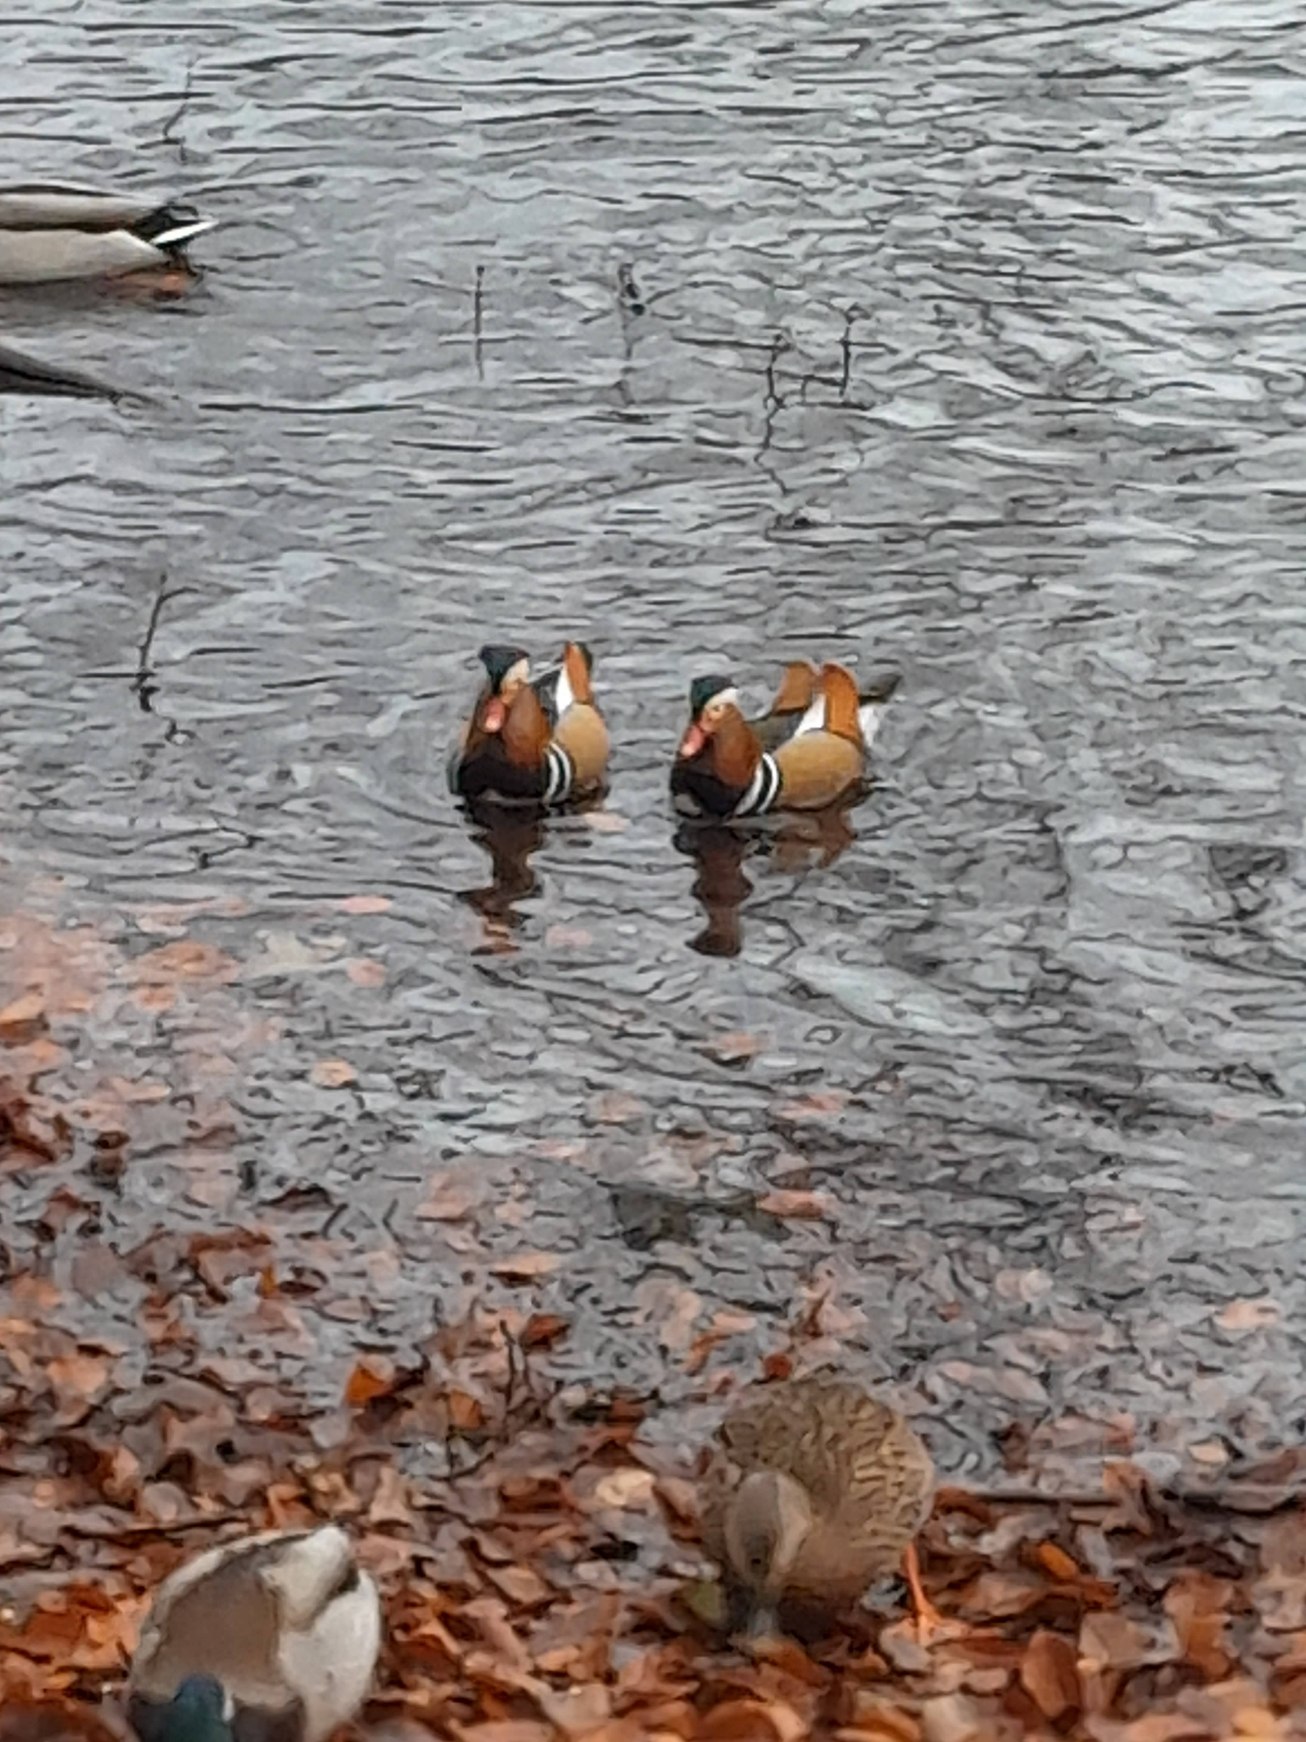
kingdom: Animalia
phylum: Chordata
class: Aves
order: Anseriformes
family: Anatidae
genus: Aix
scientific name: Aix galericulata
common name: Mandarinand
